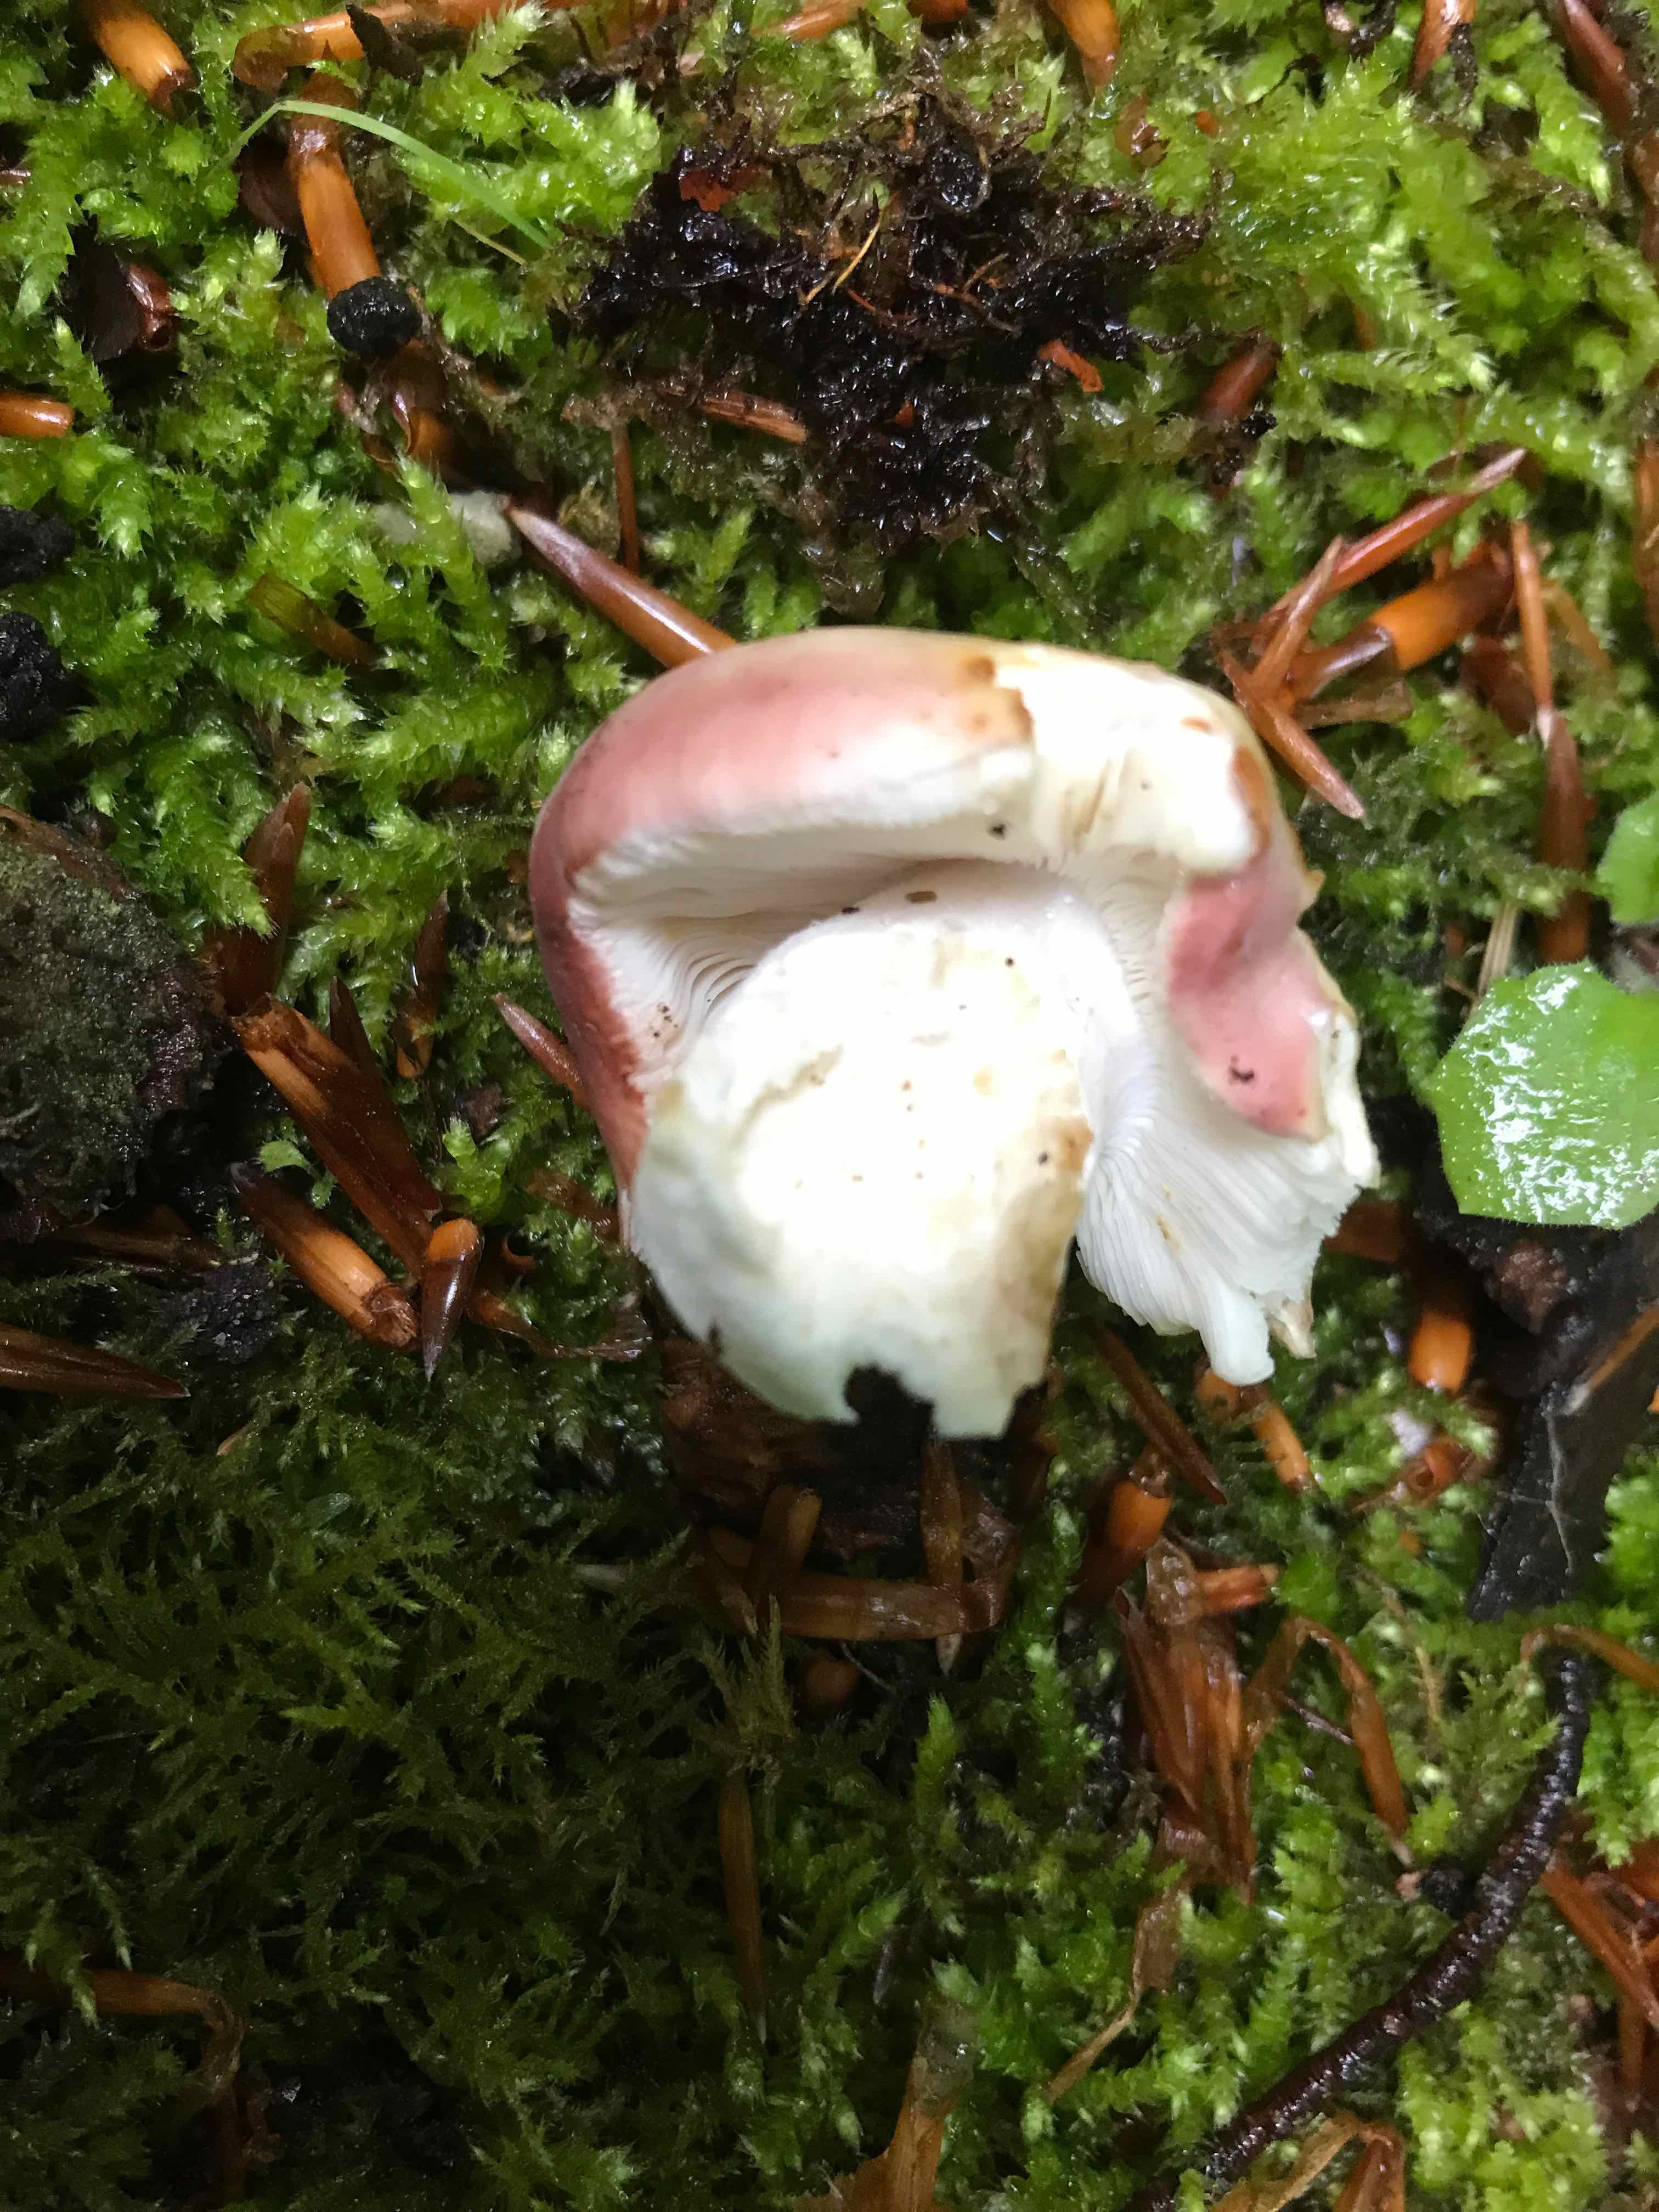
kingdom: Fungi
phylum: Basidiomycota
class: Agaricomycetes
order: Russulales
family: Russulaceae
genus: Russula
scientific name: Russula vesca
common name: spiselig skørhat
